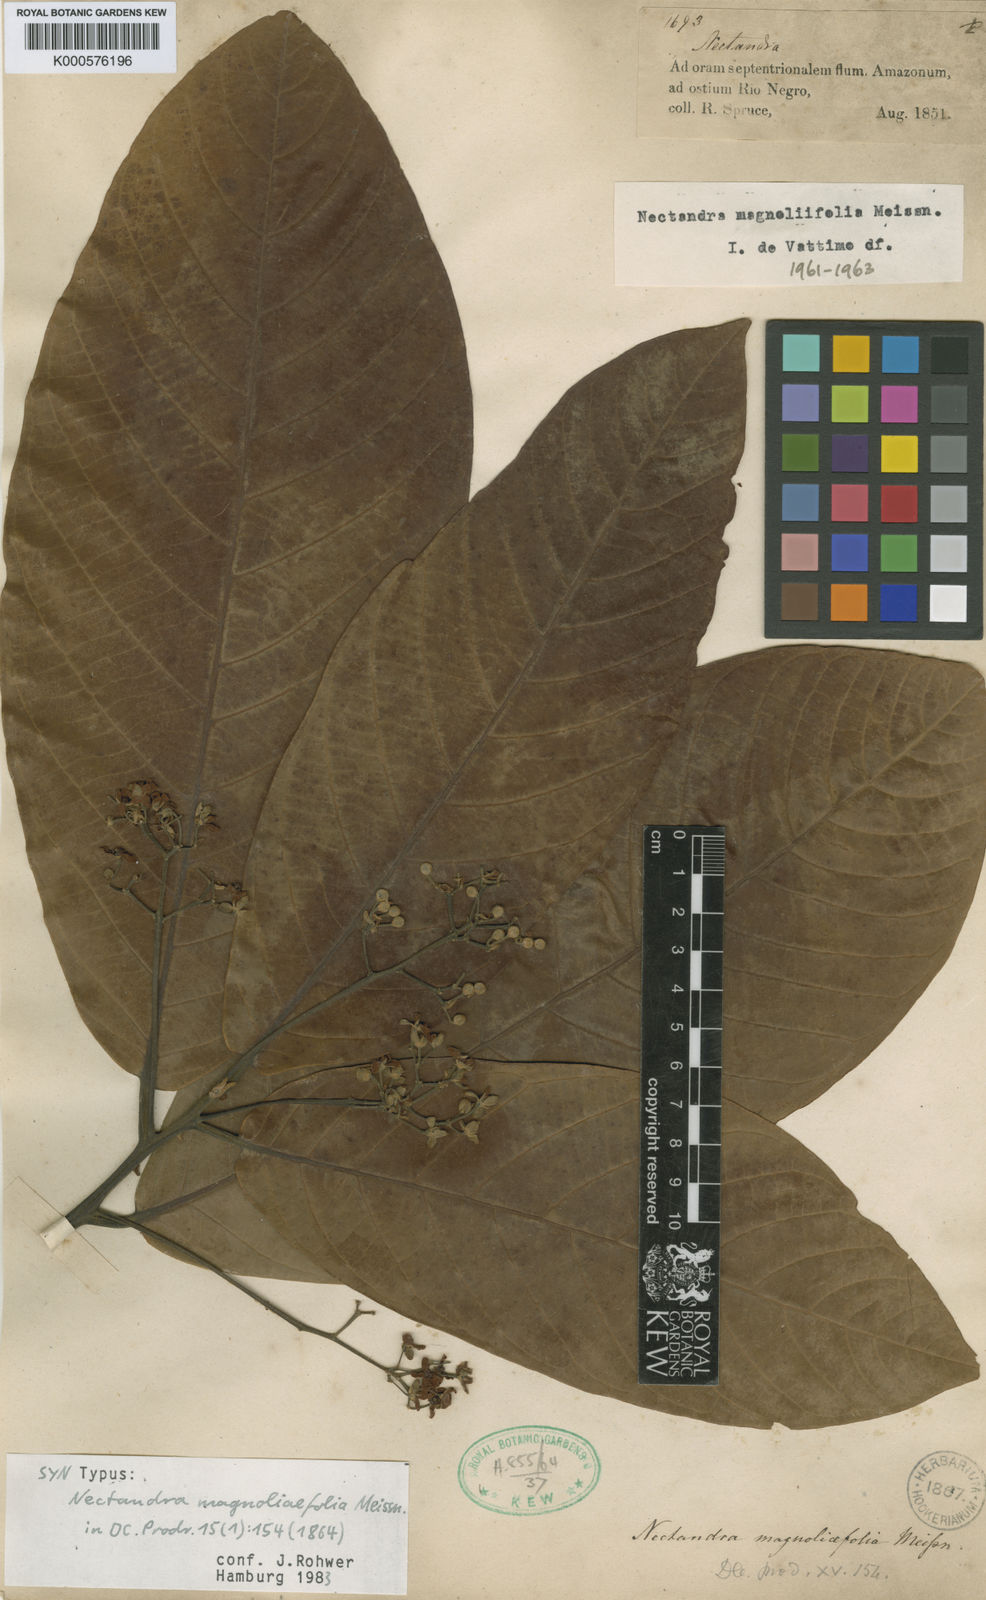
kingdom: Plantae
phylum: Tracheophyta
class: Magnoliopsida
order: Laurales
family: Lauraceae
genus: Nectandra
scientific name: Nectandra canescens
